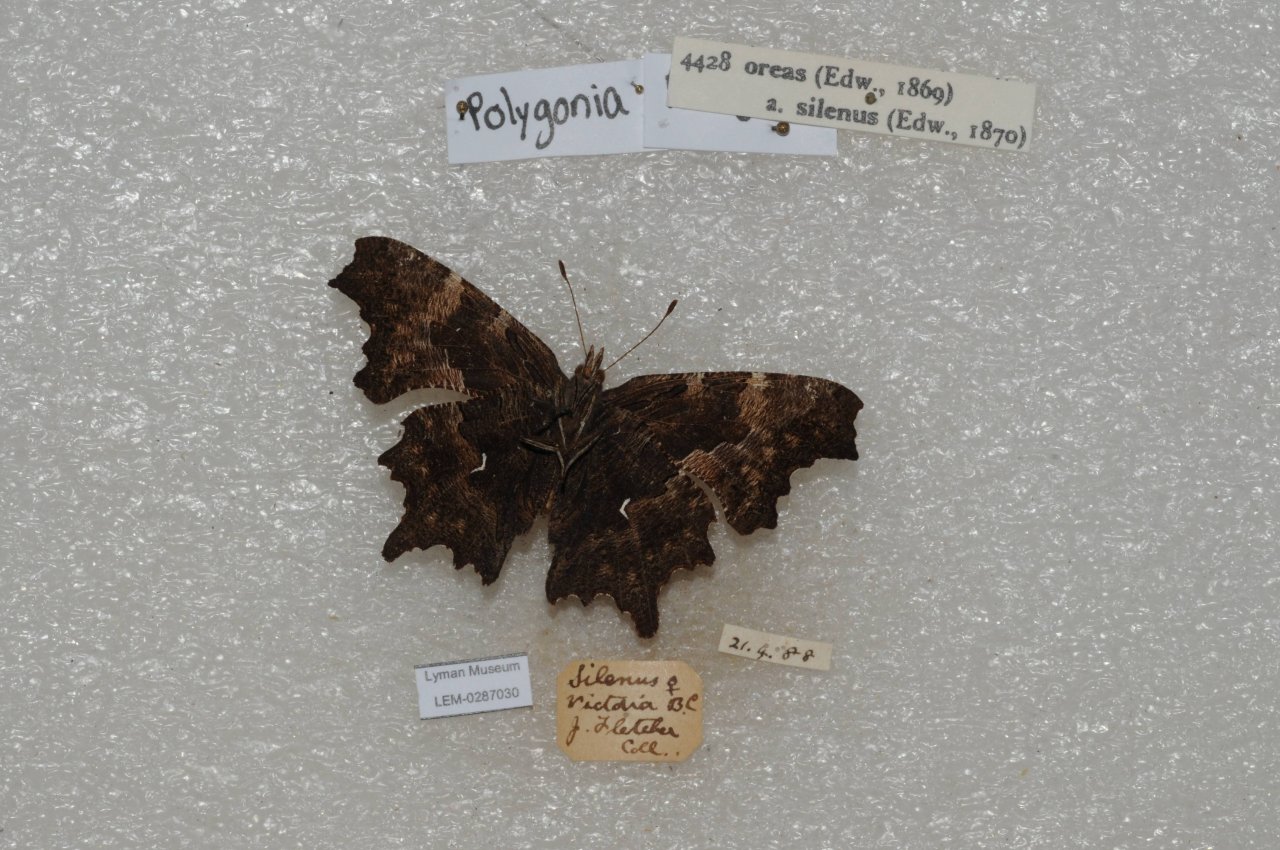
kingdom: Animalia
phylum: Arthropoda
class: Insecta
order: Lepidoptera
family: Nymphalidae
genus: Polygonia
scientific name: Polygonia oreas
